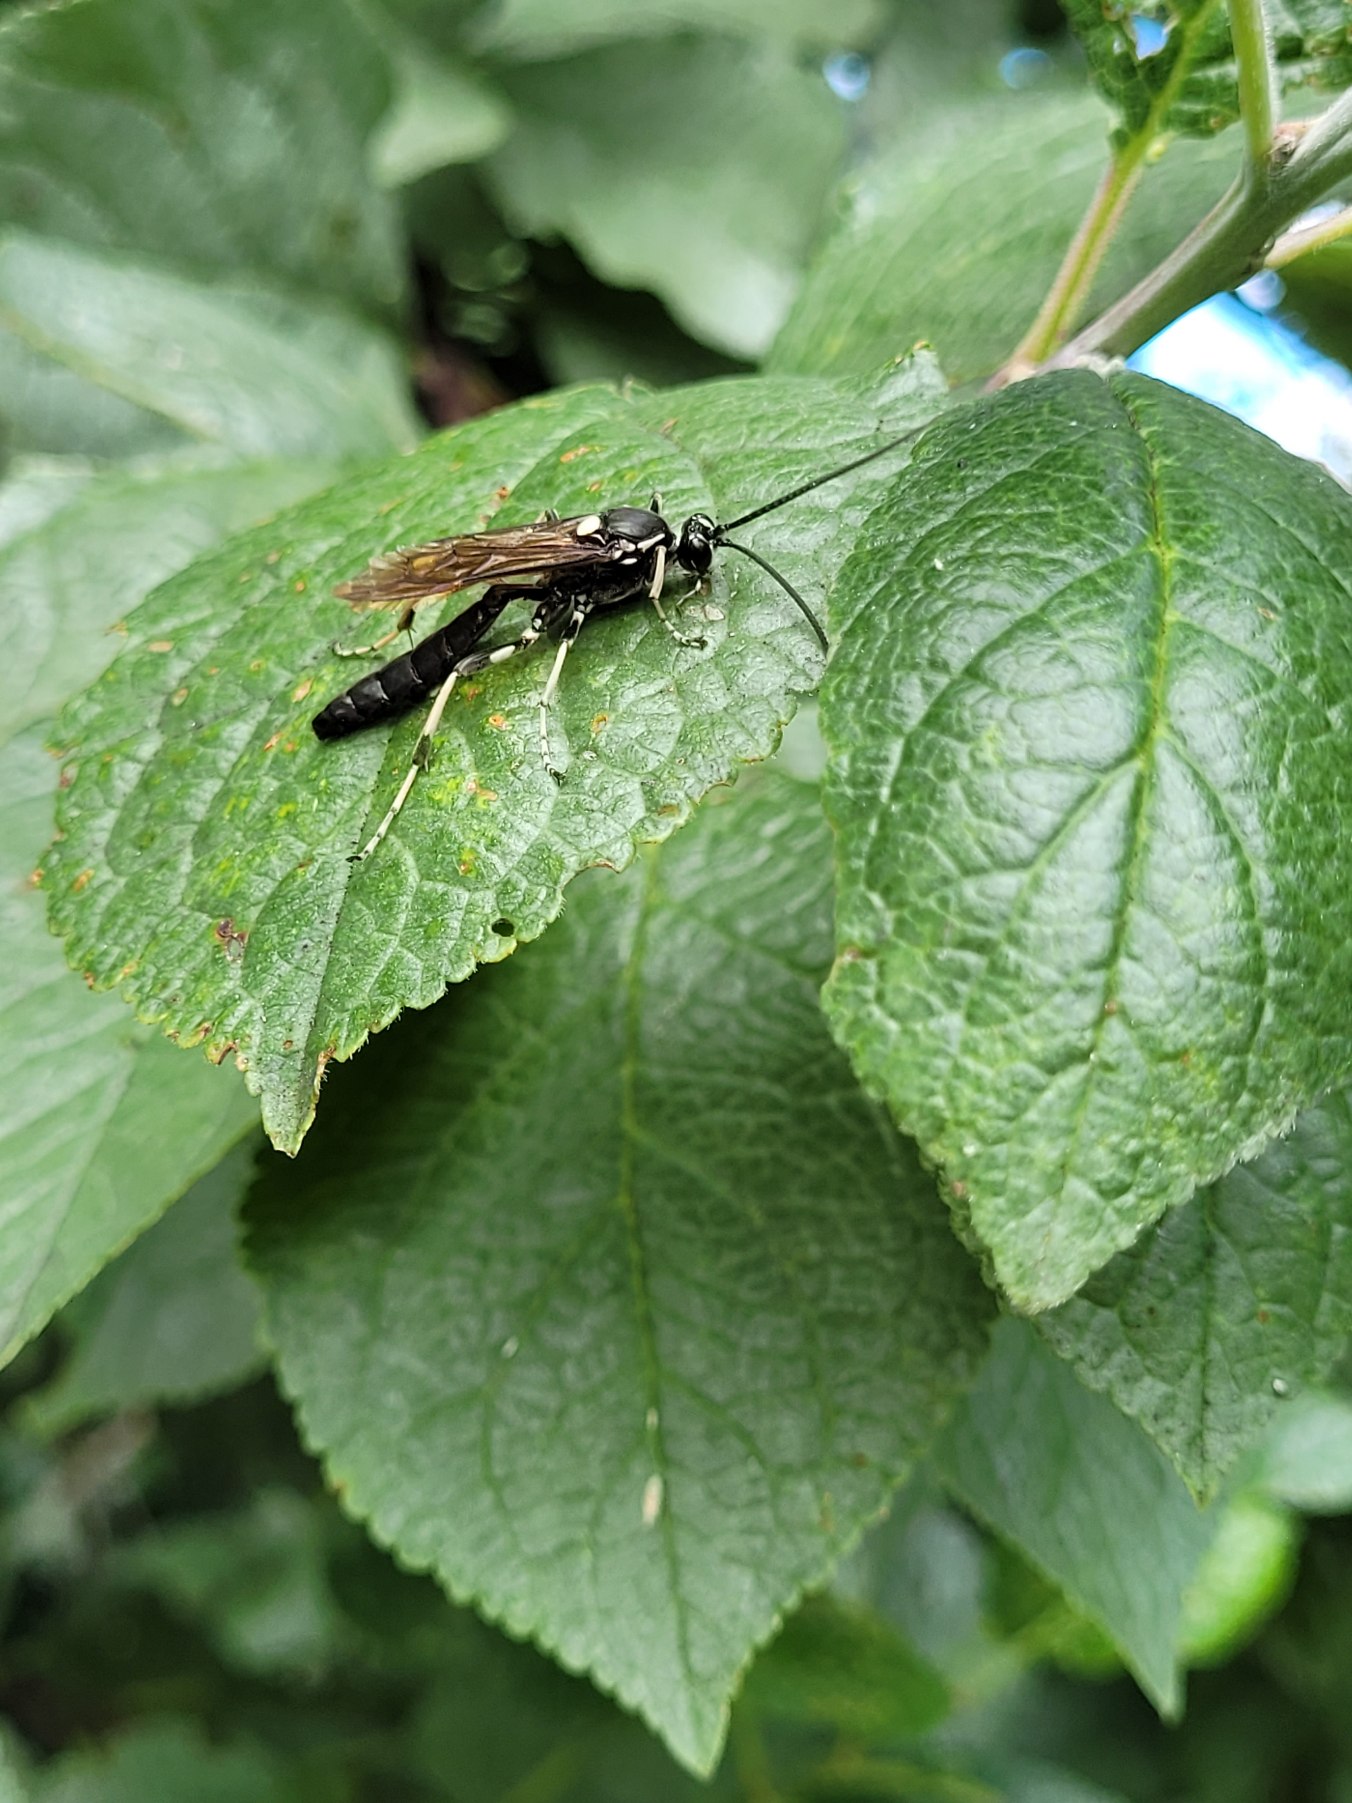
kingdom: Animalia
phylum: Arthropoda
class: Insecta
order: Hymenoptera
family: Ichneumonidae
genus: Amblyjoppa
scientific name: Amblyjoppa proteus
